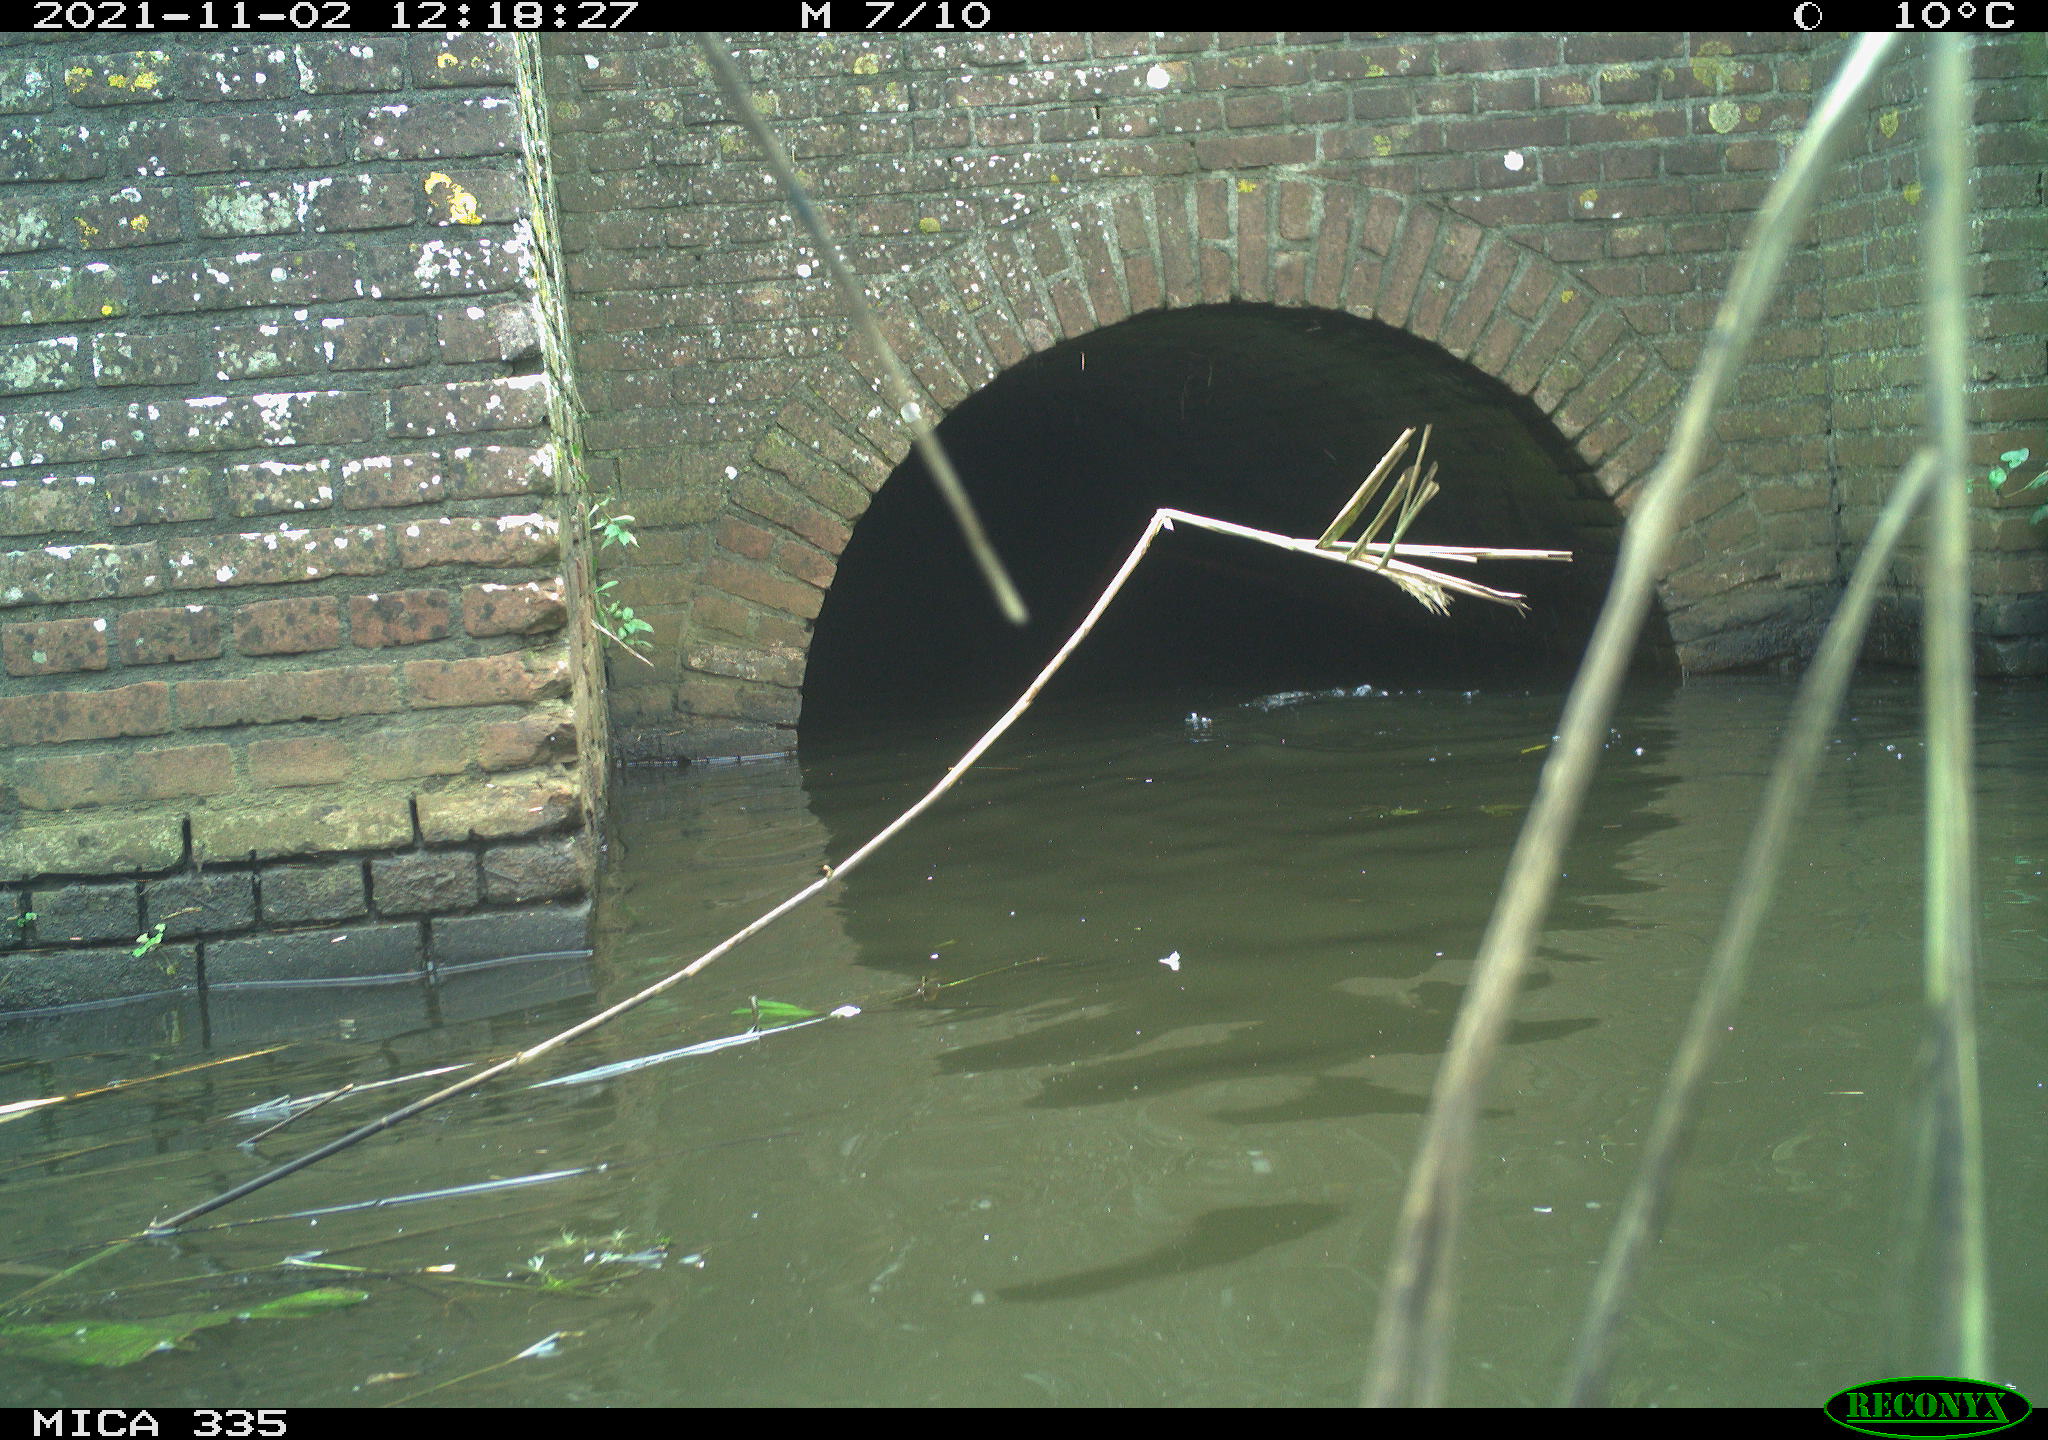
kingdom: Animalia
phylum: Chordata
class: Aves
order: Suliformes
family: Phalacrocoracidae
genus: Phalacrocorax
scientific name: Phalacrocorax carbo
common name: Great cormorant
